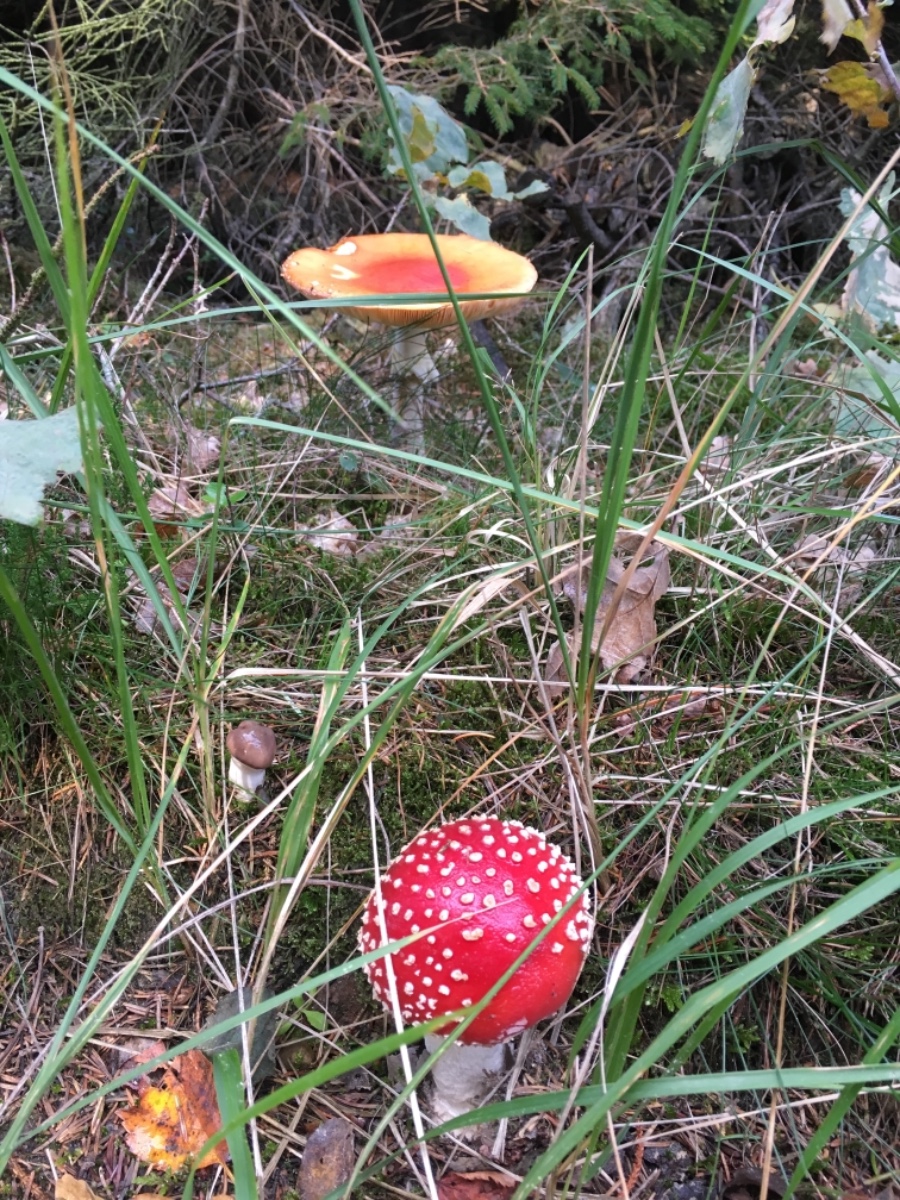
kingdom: Fungi
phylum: Basidiomycota
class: Agaricomycetes
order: Agaricales
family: Amanitaceae
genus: Amanita
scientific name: Amanita muscaria
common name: rød fluesvamp
